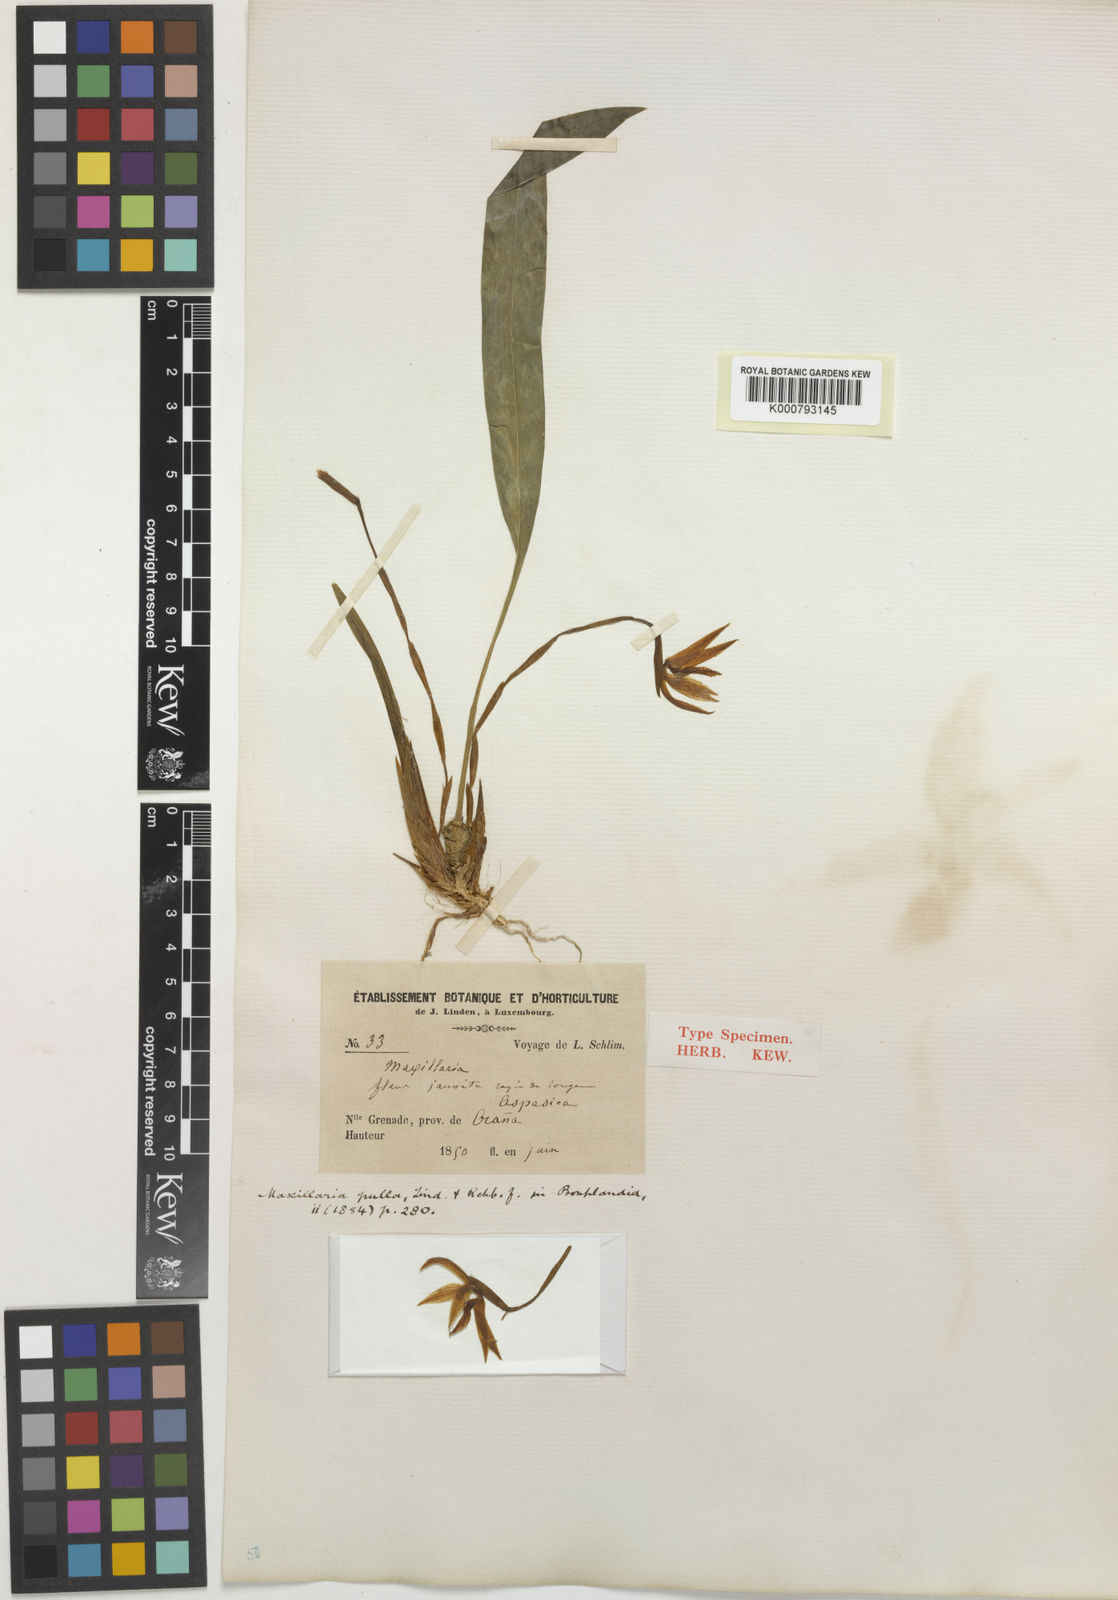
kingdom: Plantae
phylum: Tracheophyta
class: Liliopsida
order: Asparagales
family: Orchidaceae
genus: Maxillaria
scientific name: Maxillaria pulla
